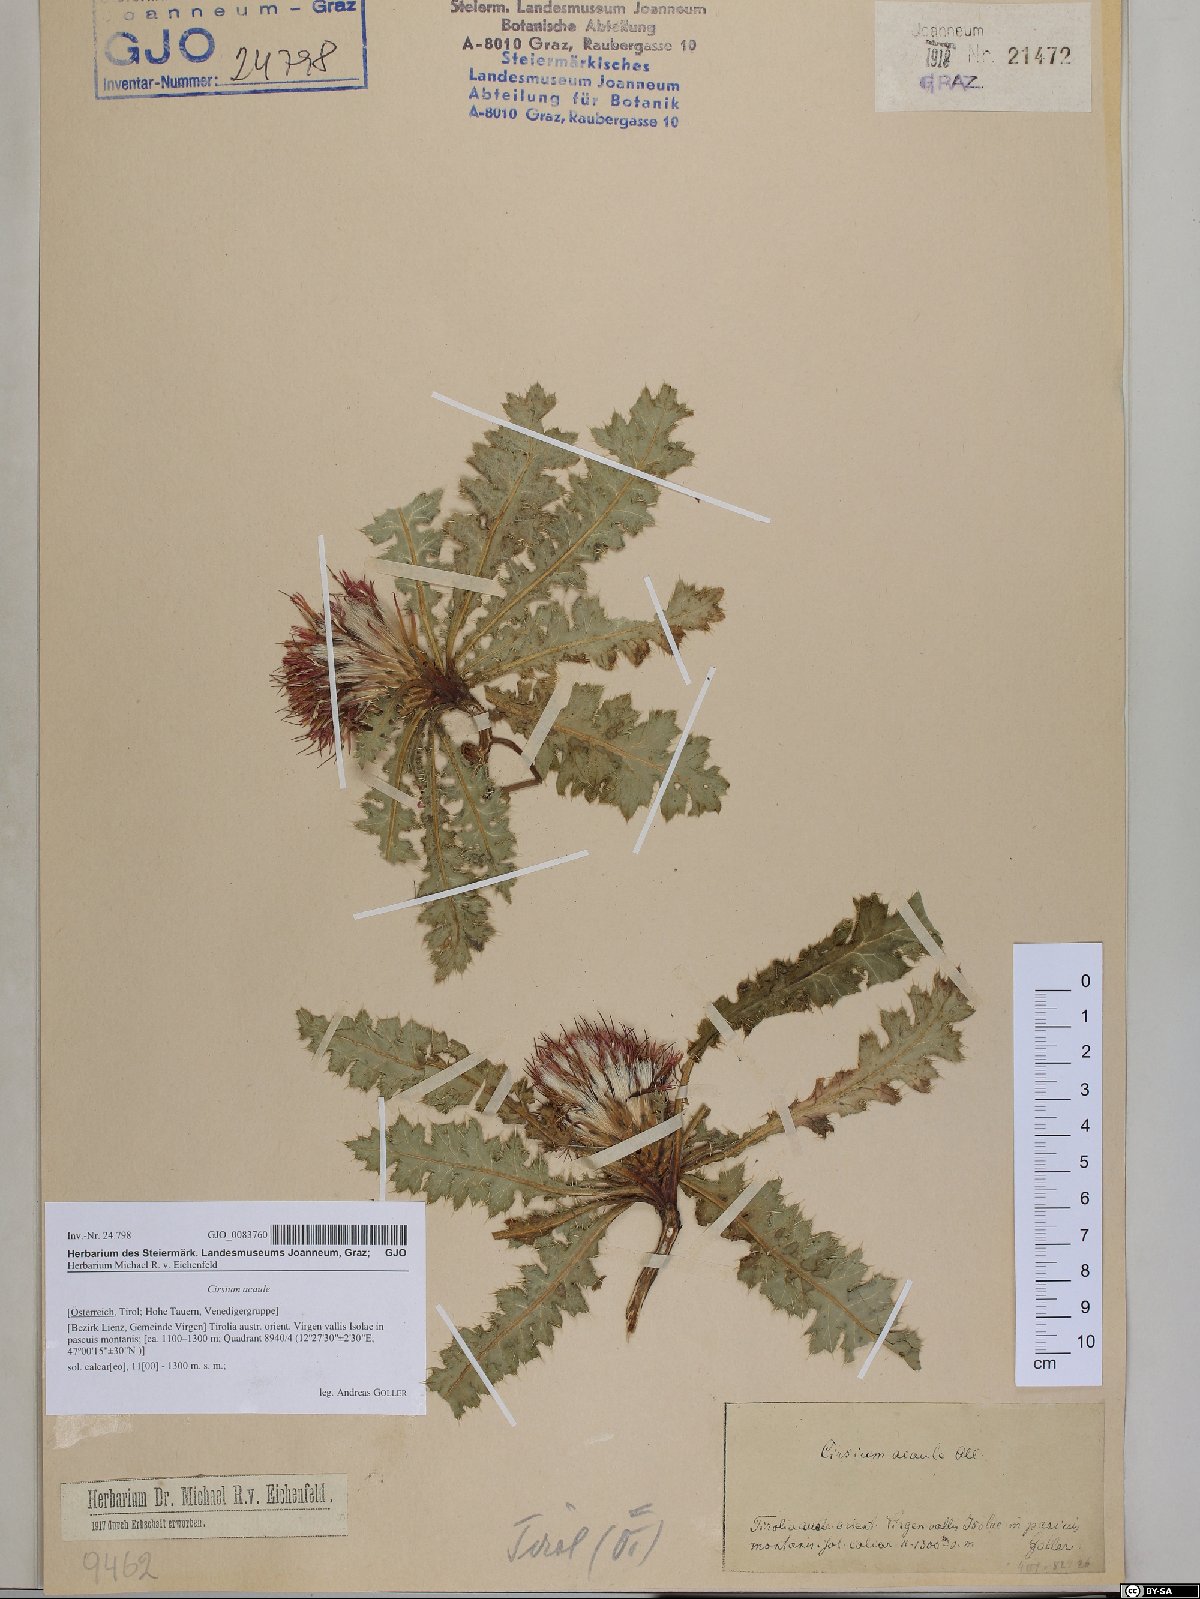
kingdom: Plantae
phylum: Tracheophyta
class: Magnoliopsida
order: Asterales
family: Asteraceae
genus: Cirsium
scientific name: Cirsium acaulon
